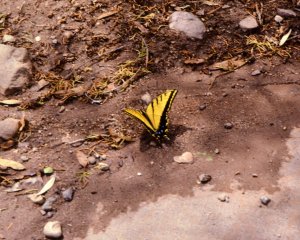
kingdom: Animalia
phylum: Arthropoda
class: Insecta
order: Lepidoptera
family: Papilionidae
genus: Papilio
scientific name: Papilio multicaudata
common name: Two-tailed Swallowtail
